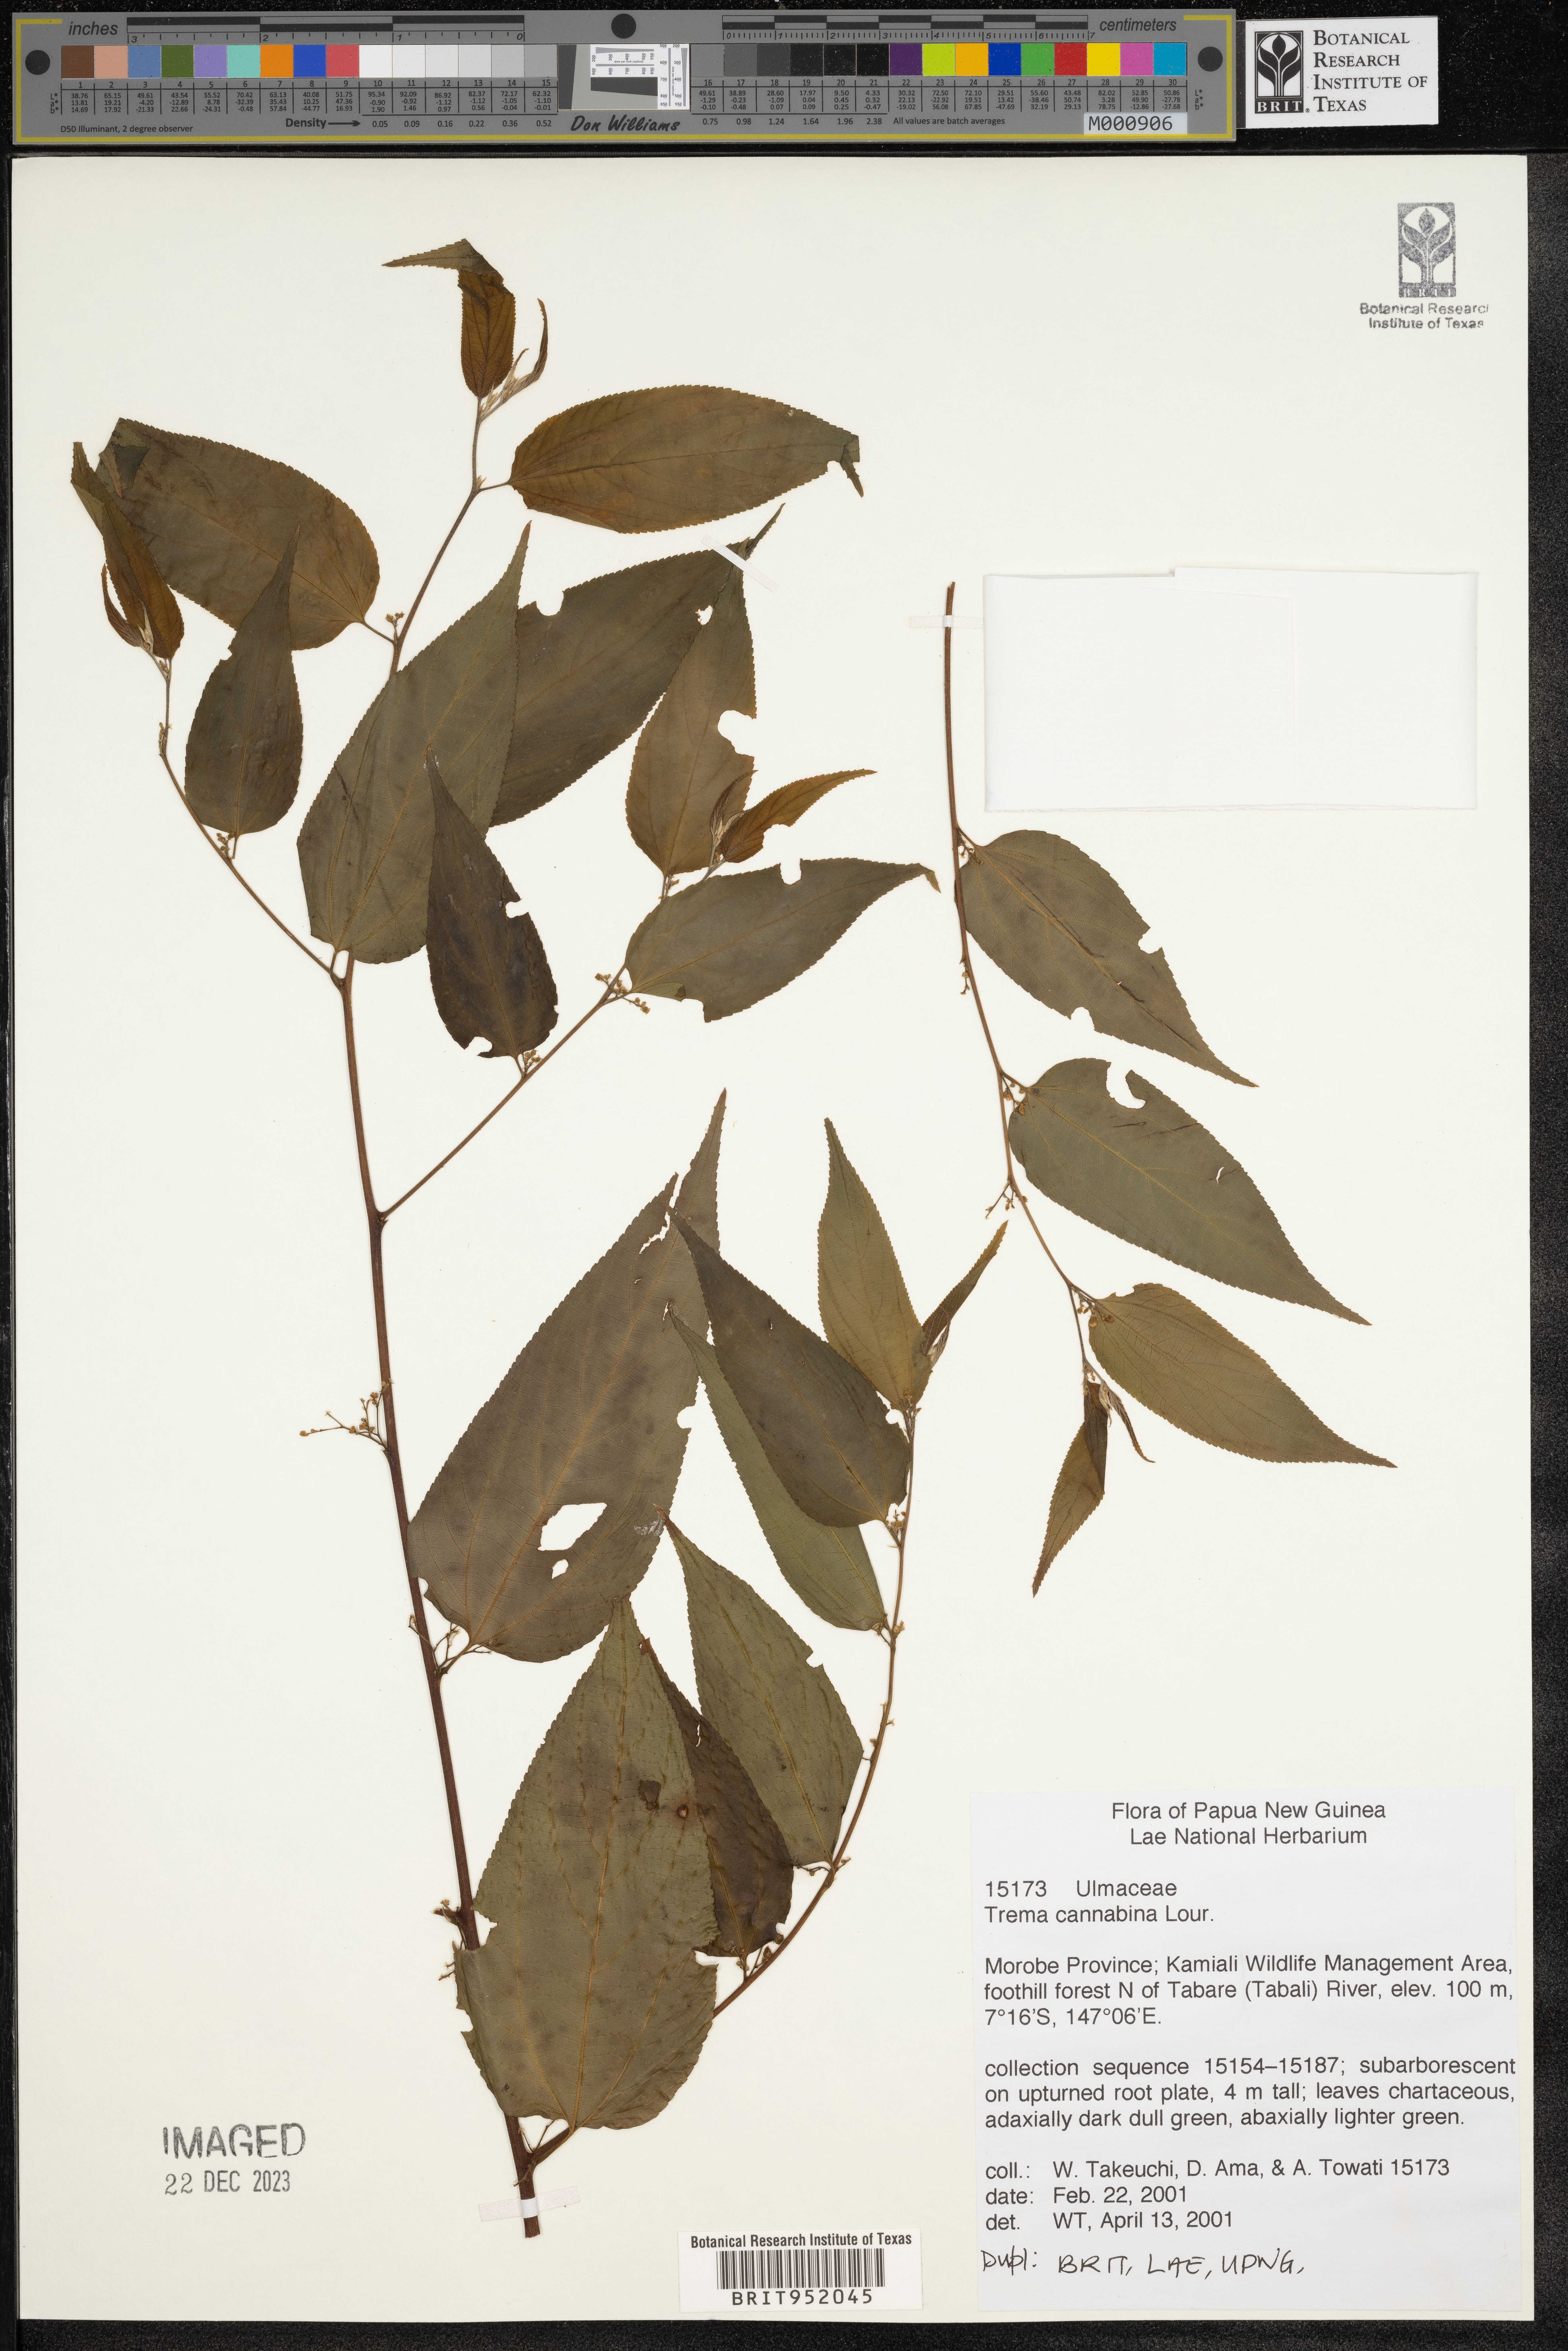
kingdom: Plantae
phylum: Tracheophyta
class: Magnoliopsida
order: Rosales
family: Cannabaceae
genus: Trema
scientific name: Trema cannabina
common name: Poison-peach
